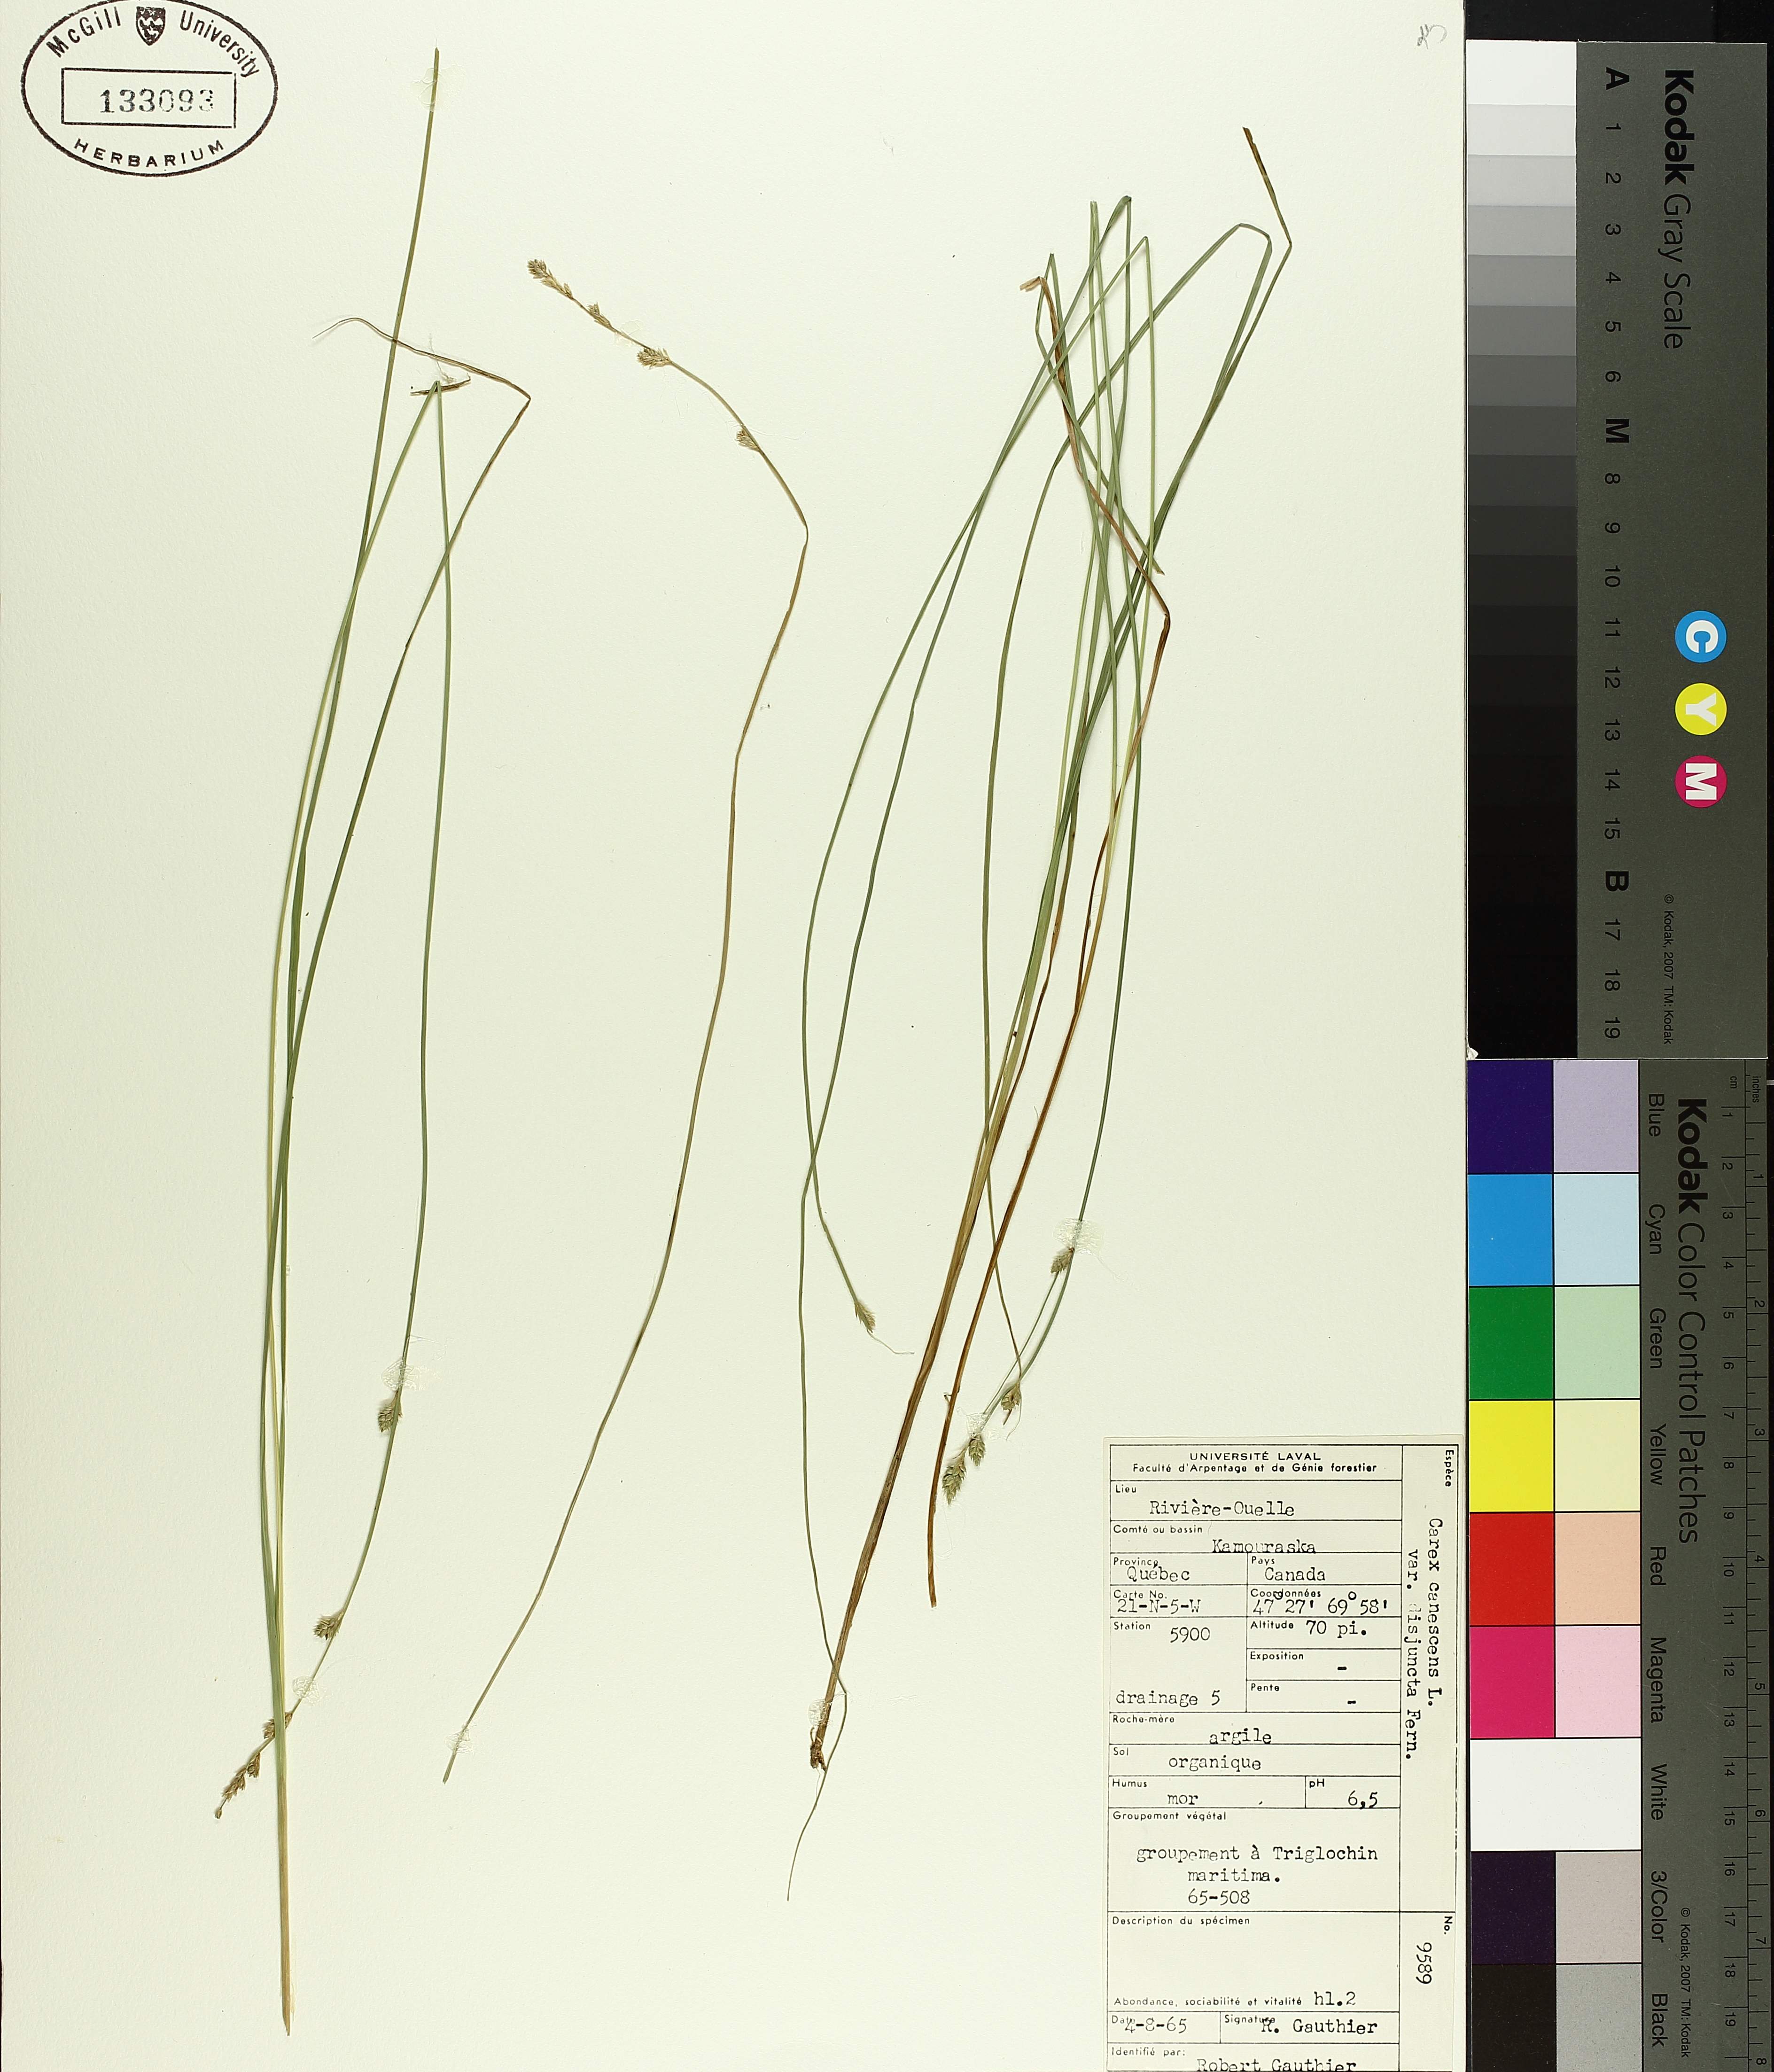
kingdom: Plantae
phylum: Tracheophyta
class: Liliopsida
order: Poales
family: Cyperaceae
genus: Carex
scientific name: Carex canescens
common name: White sedge
